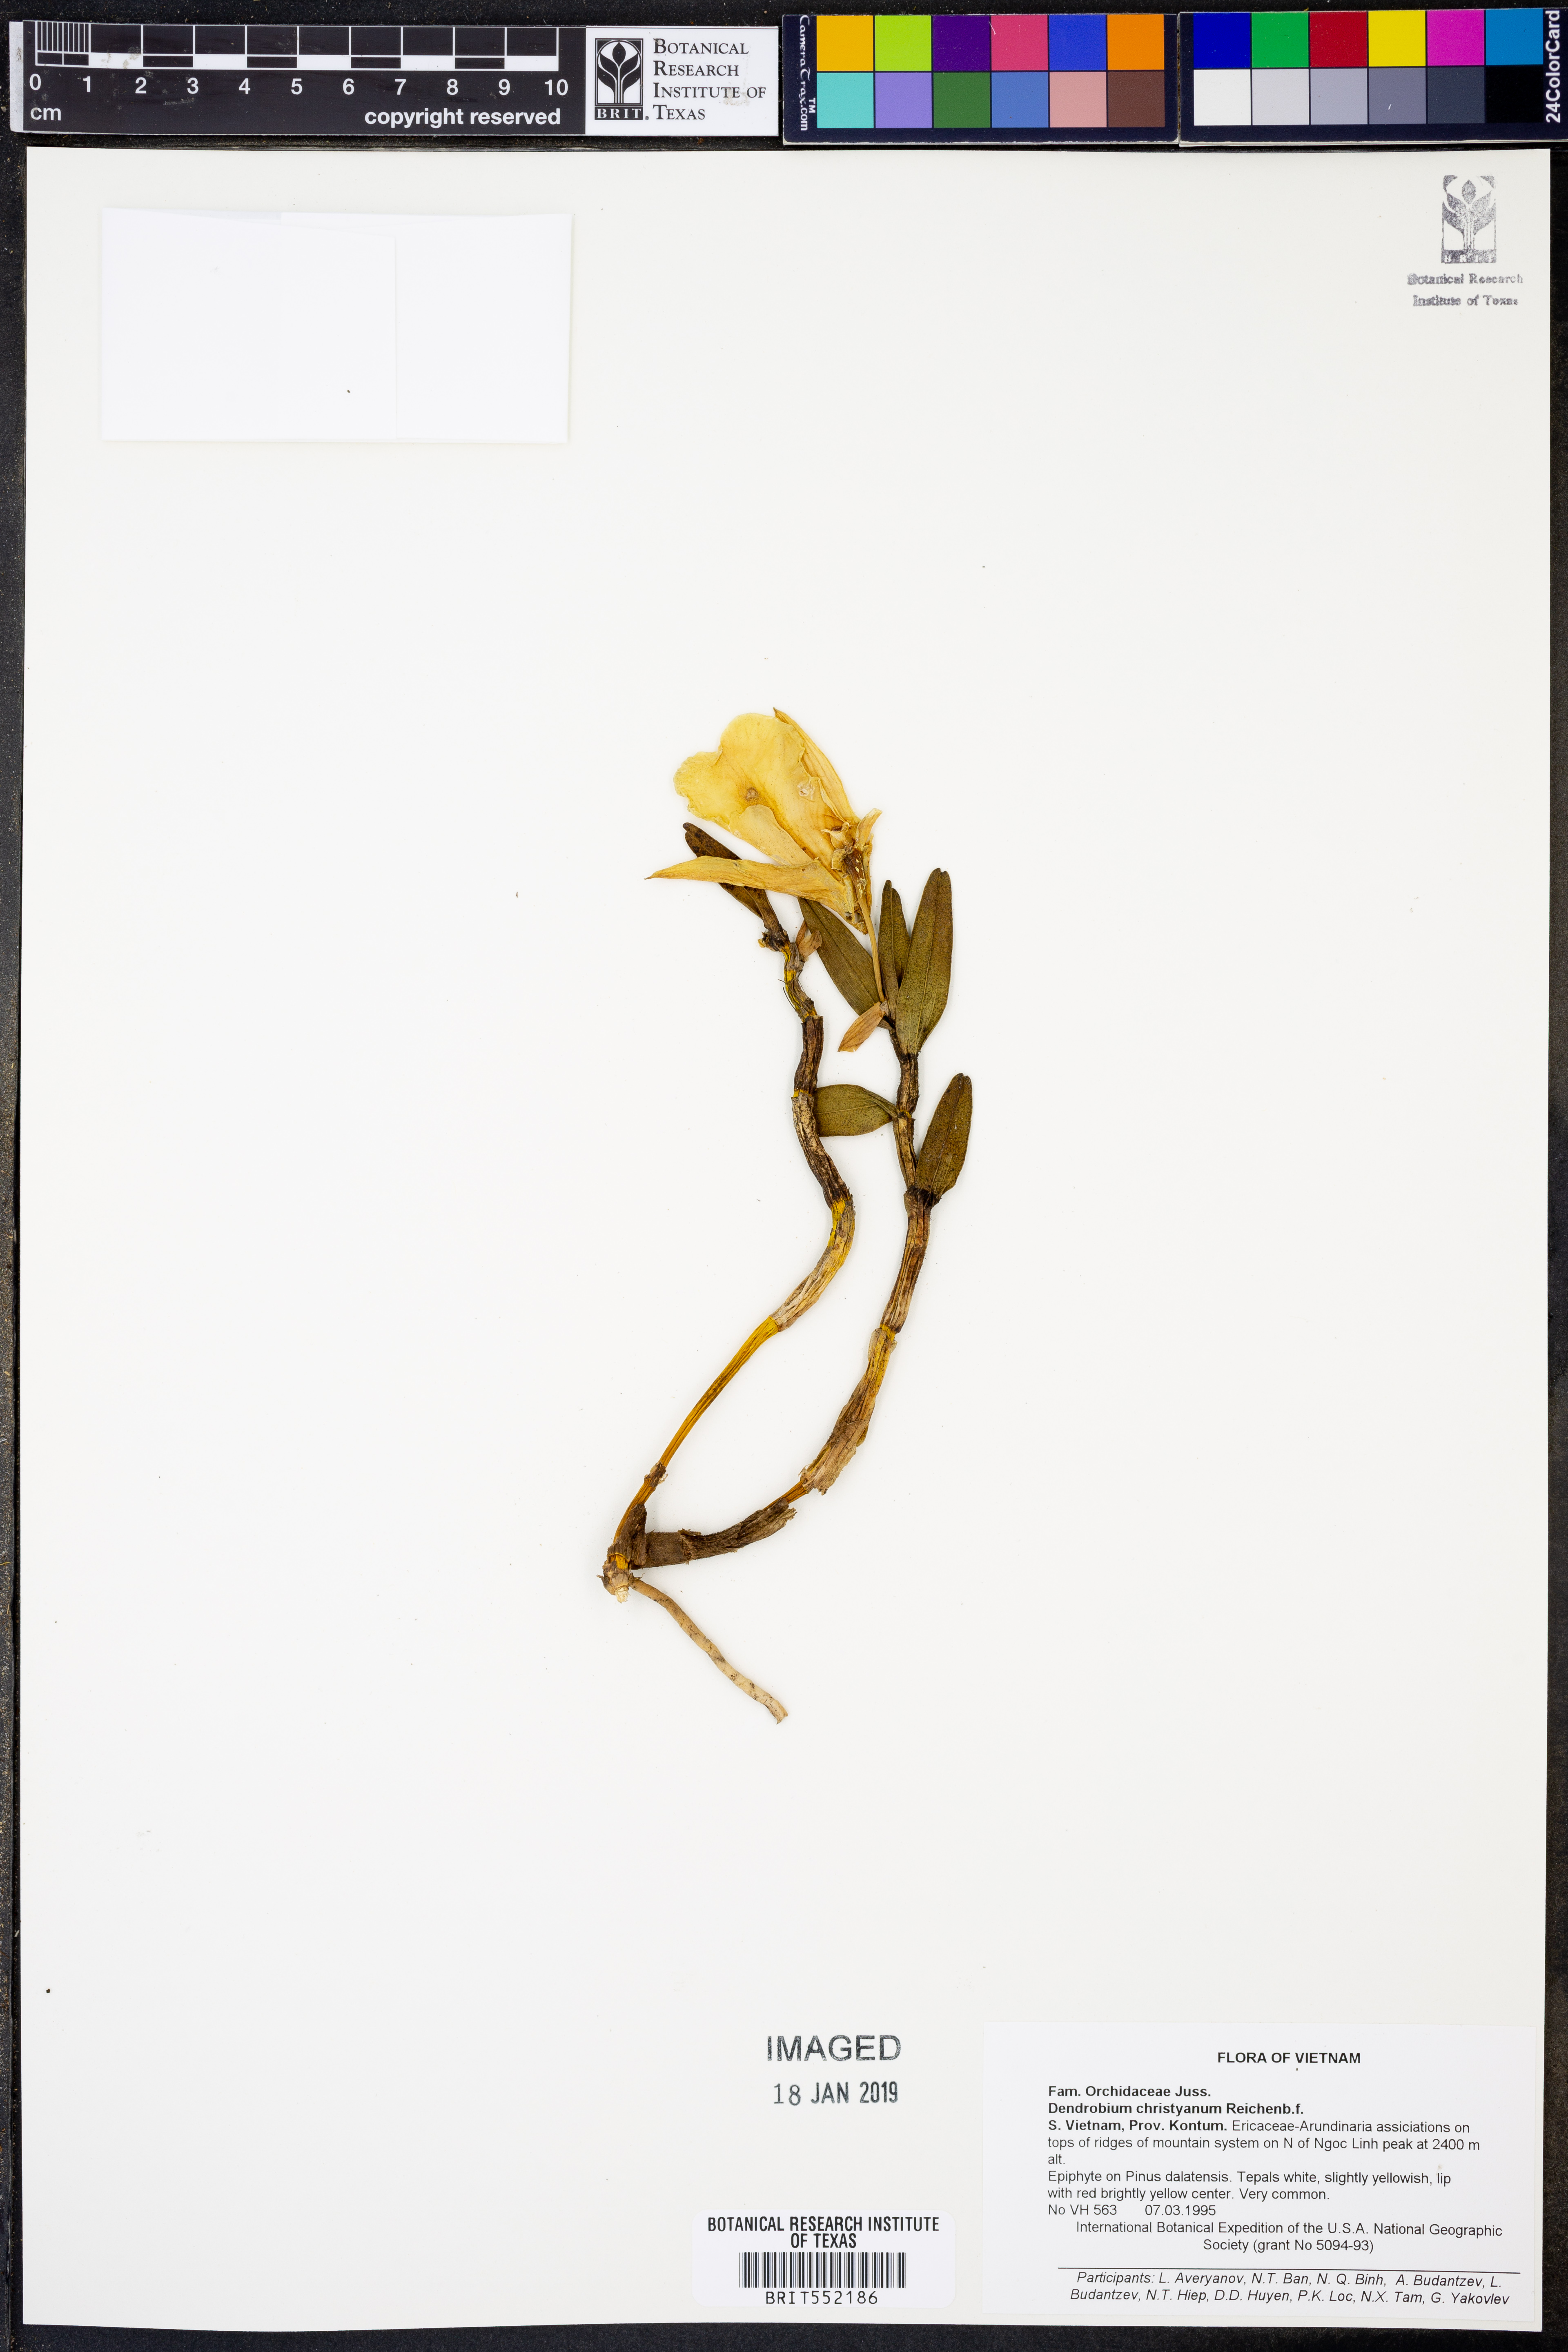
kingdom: Plantae
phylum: Tracheophyta
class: Liliopsida
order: Asparagales
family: Orchidaceae
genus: Dendrobium
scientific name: Dendrobium christyanum
